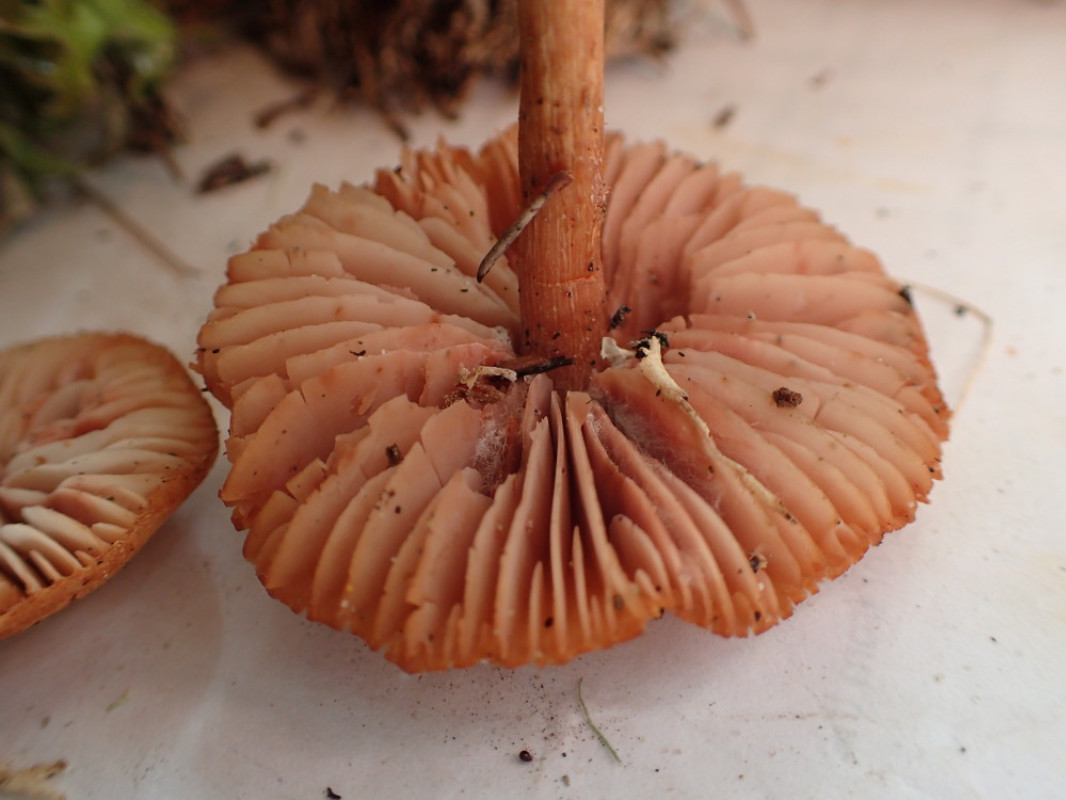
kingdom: Fungi
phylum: Basidiomycota
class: Agaricomycetes
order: Agaricales
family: Hydnangiaceae
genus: Laccaria
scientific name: Laccaria laccata
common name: rød ametysthat
